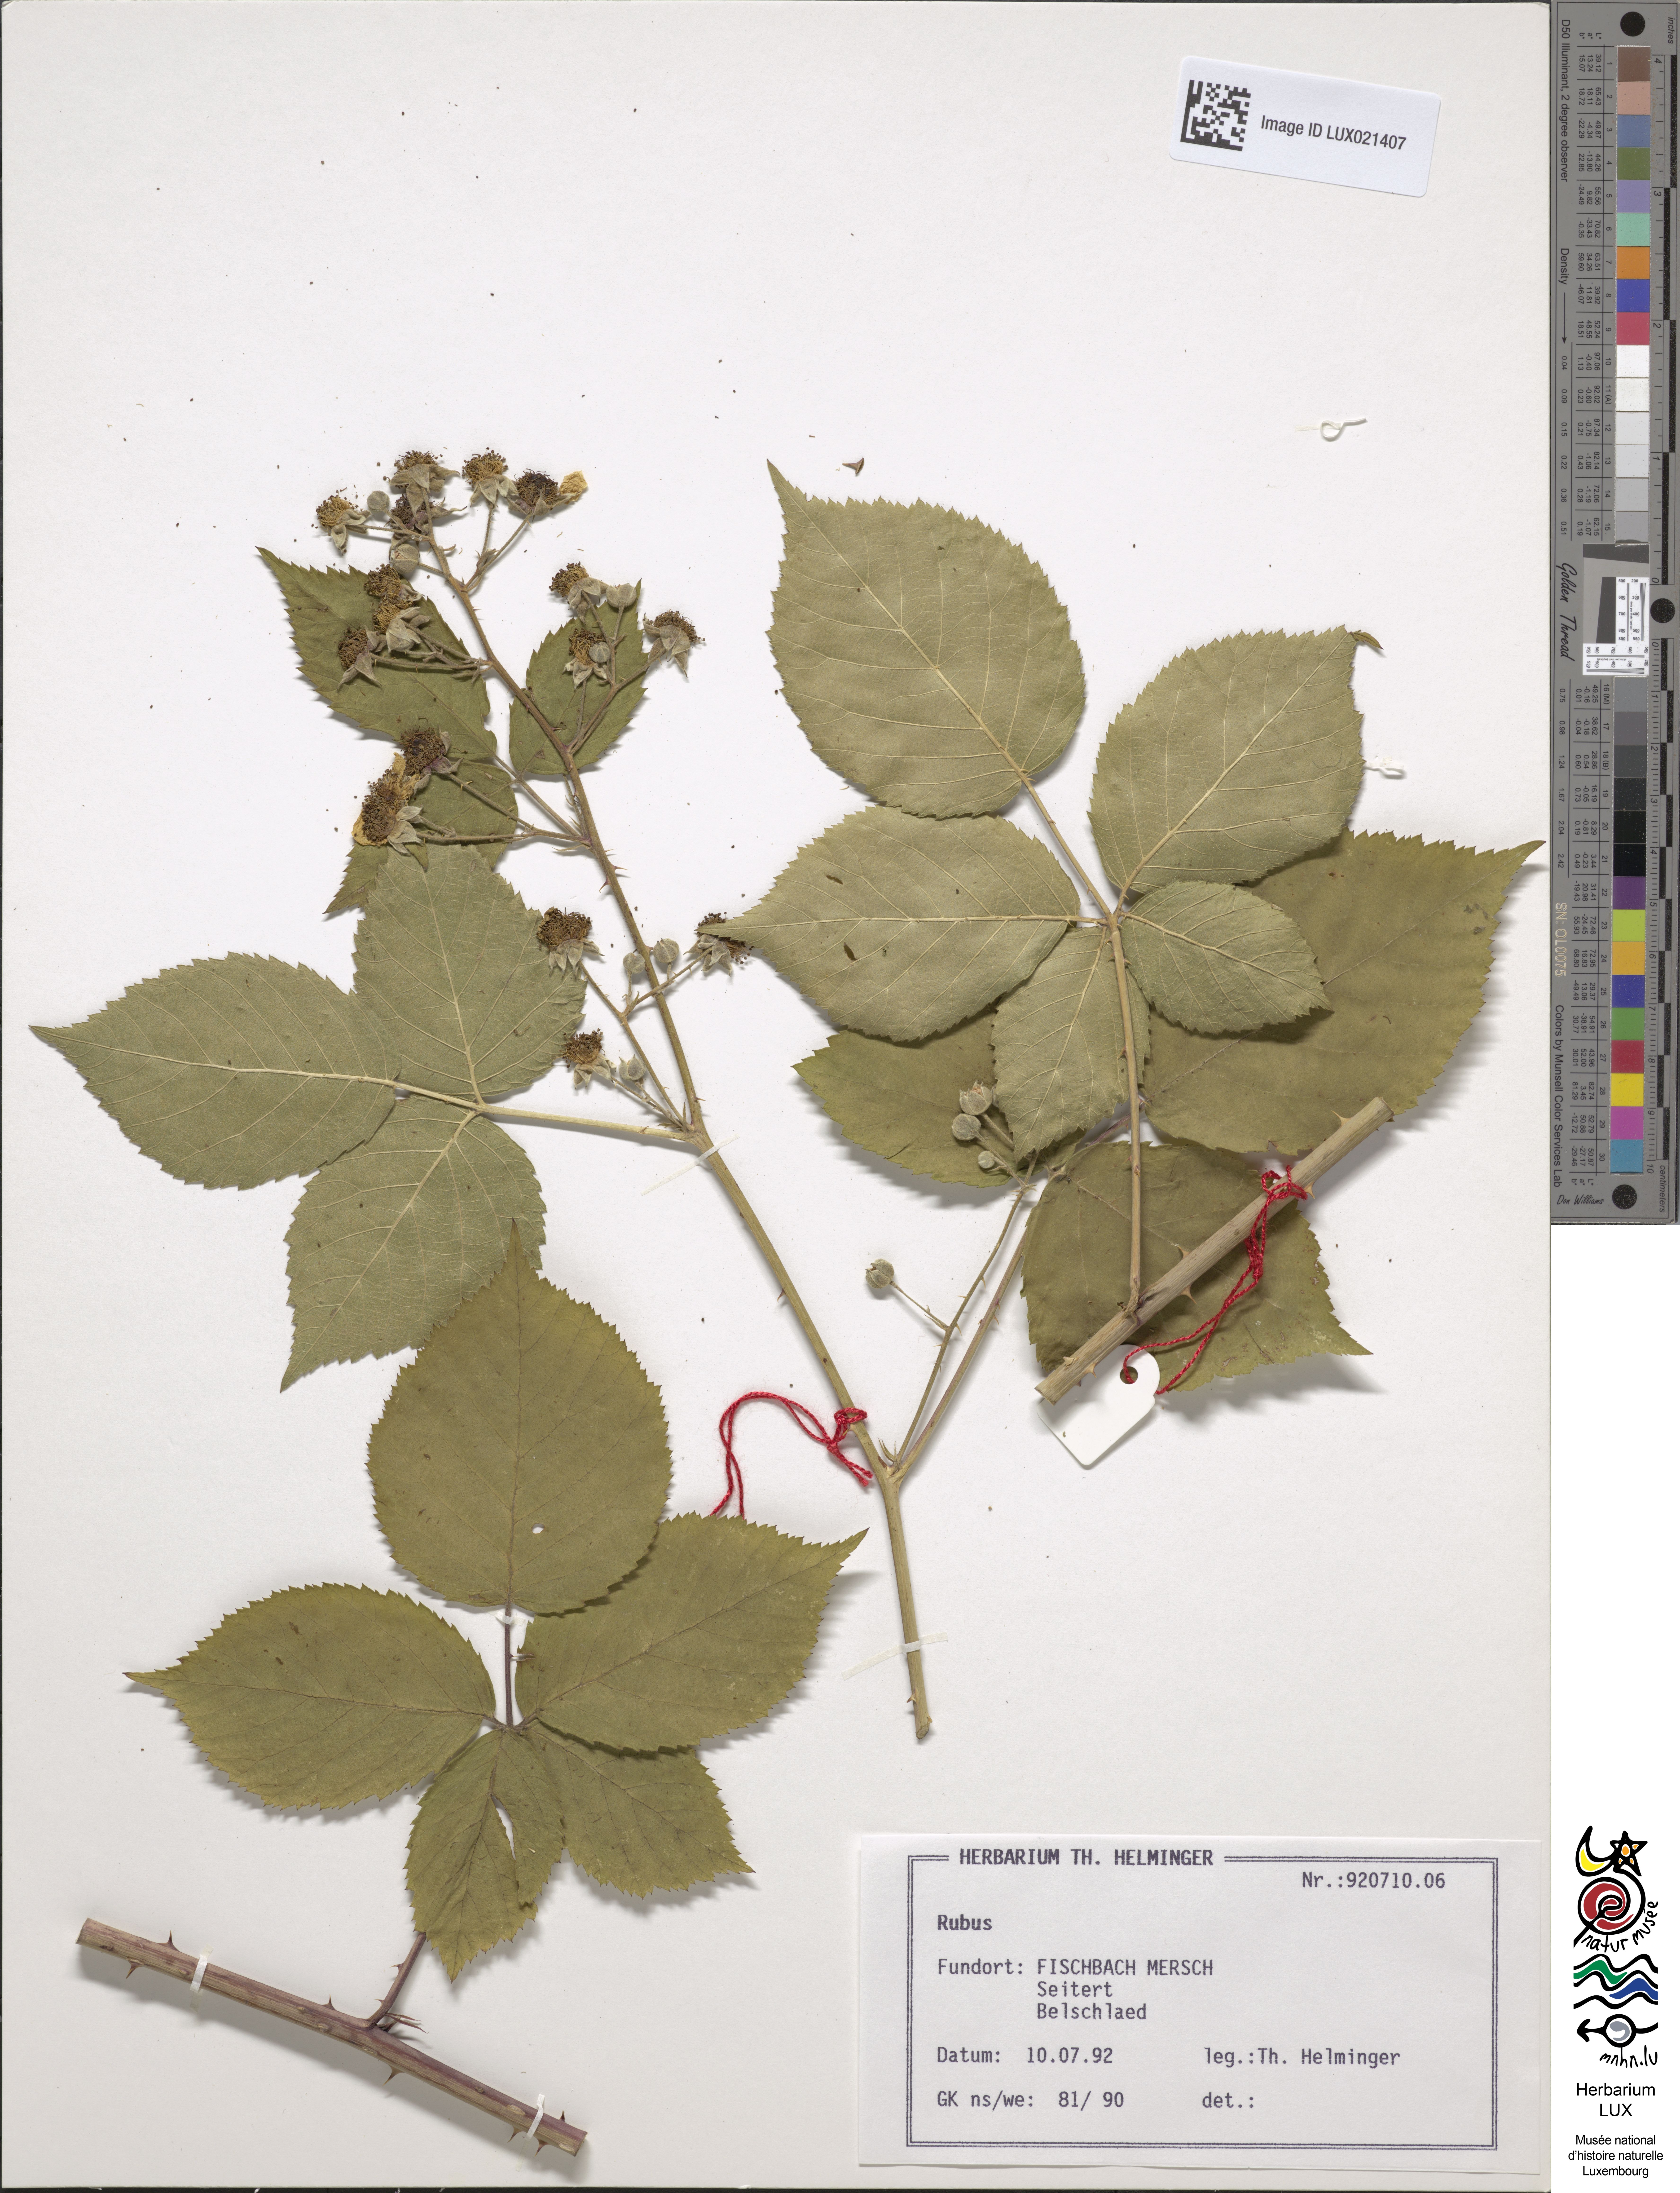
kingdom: Plantae
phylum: Tracheophyta
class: Magnoliopsida
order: Rosales
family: Rosaceae
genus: Rubus
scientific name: Rubus
